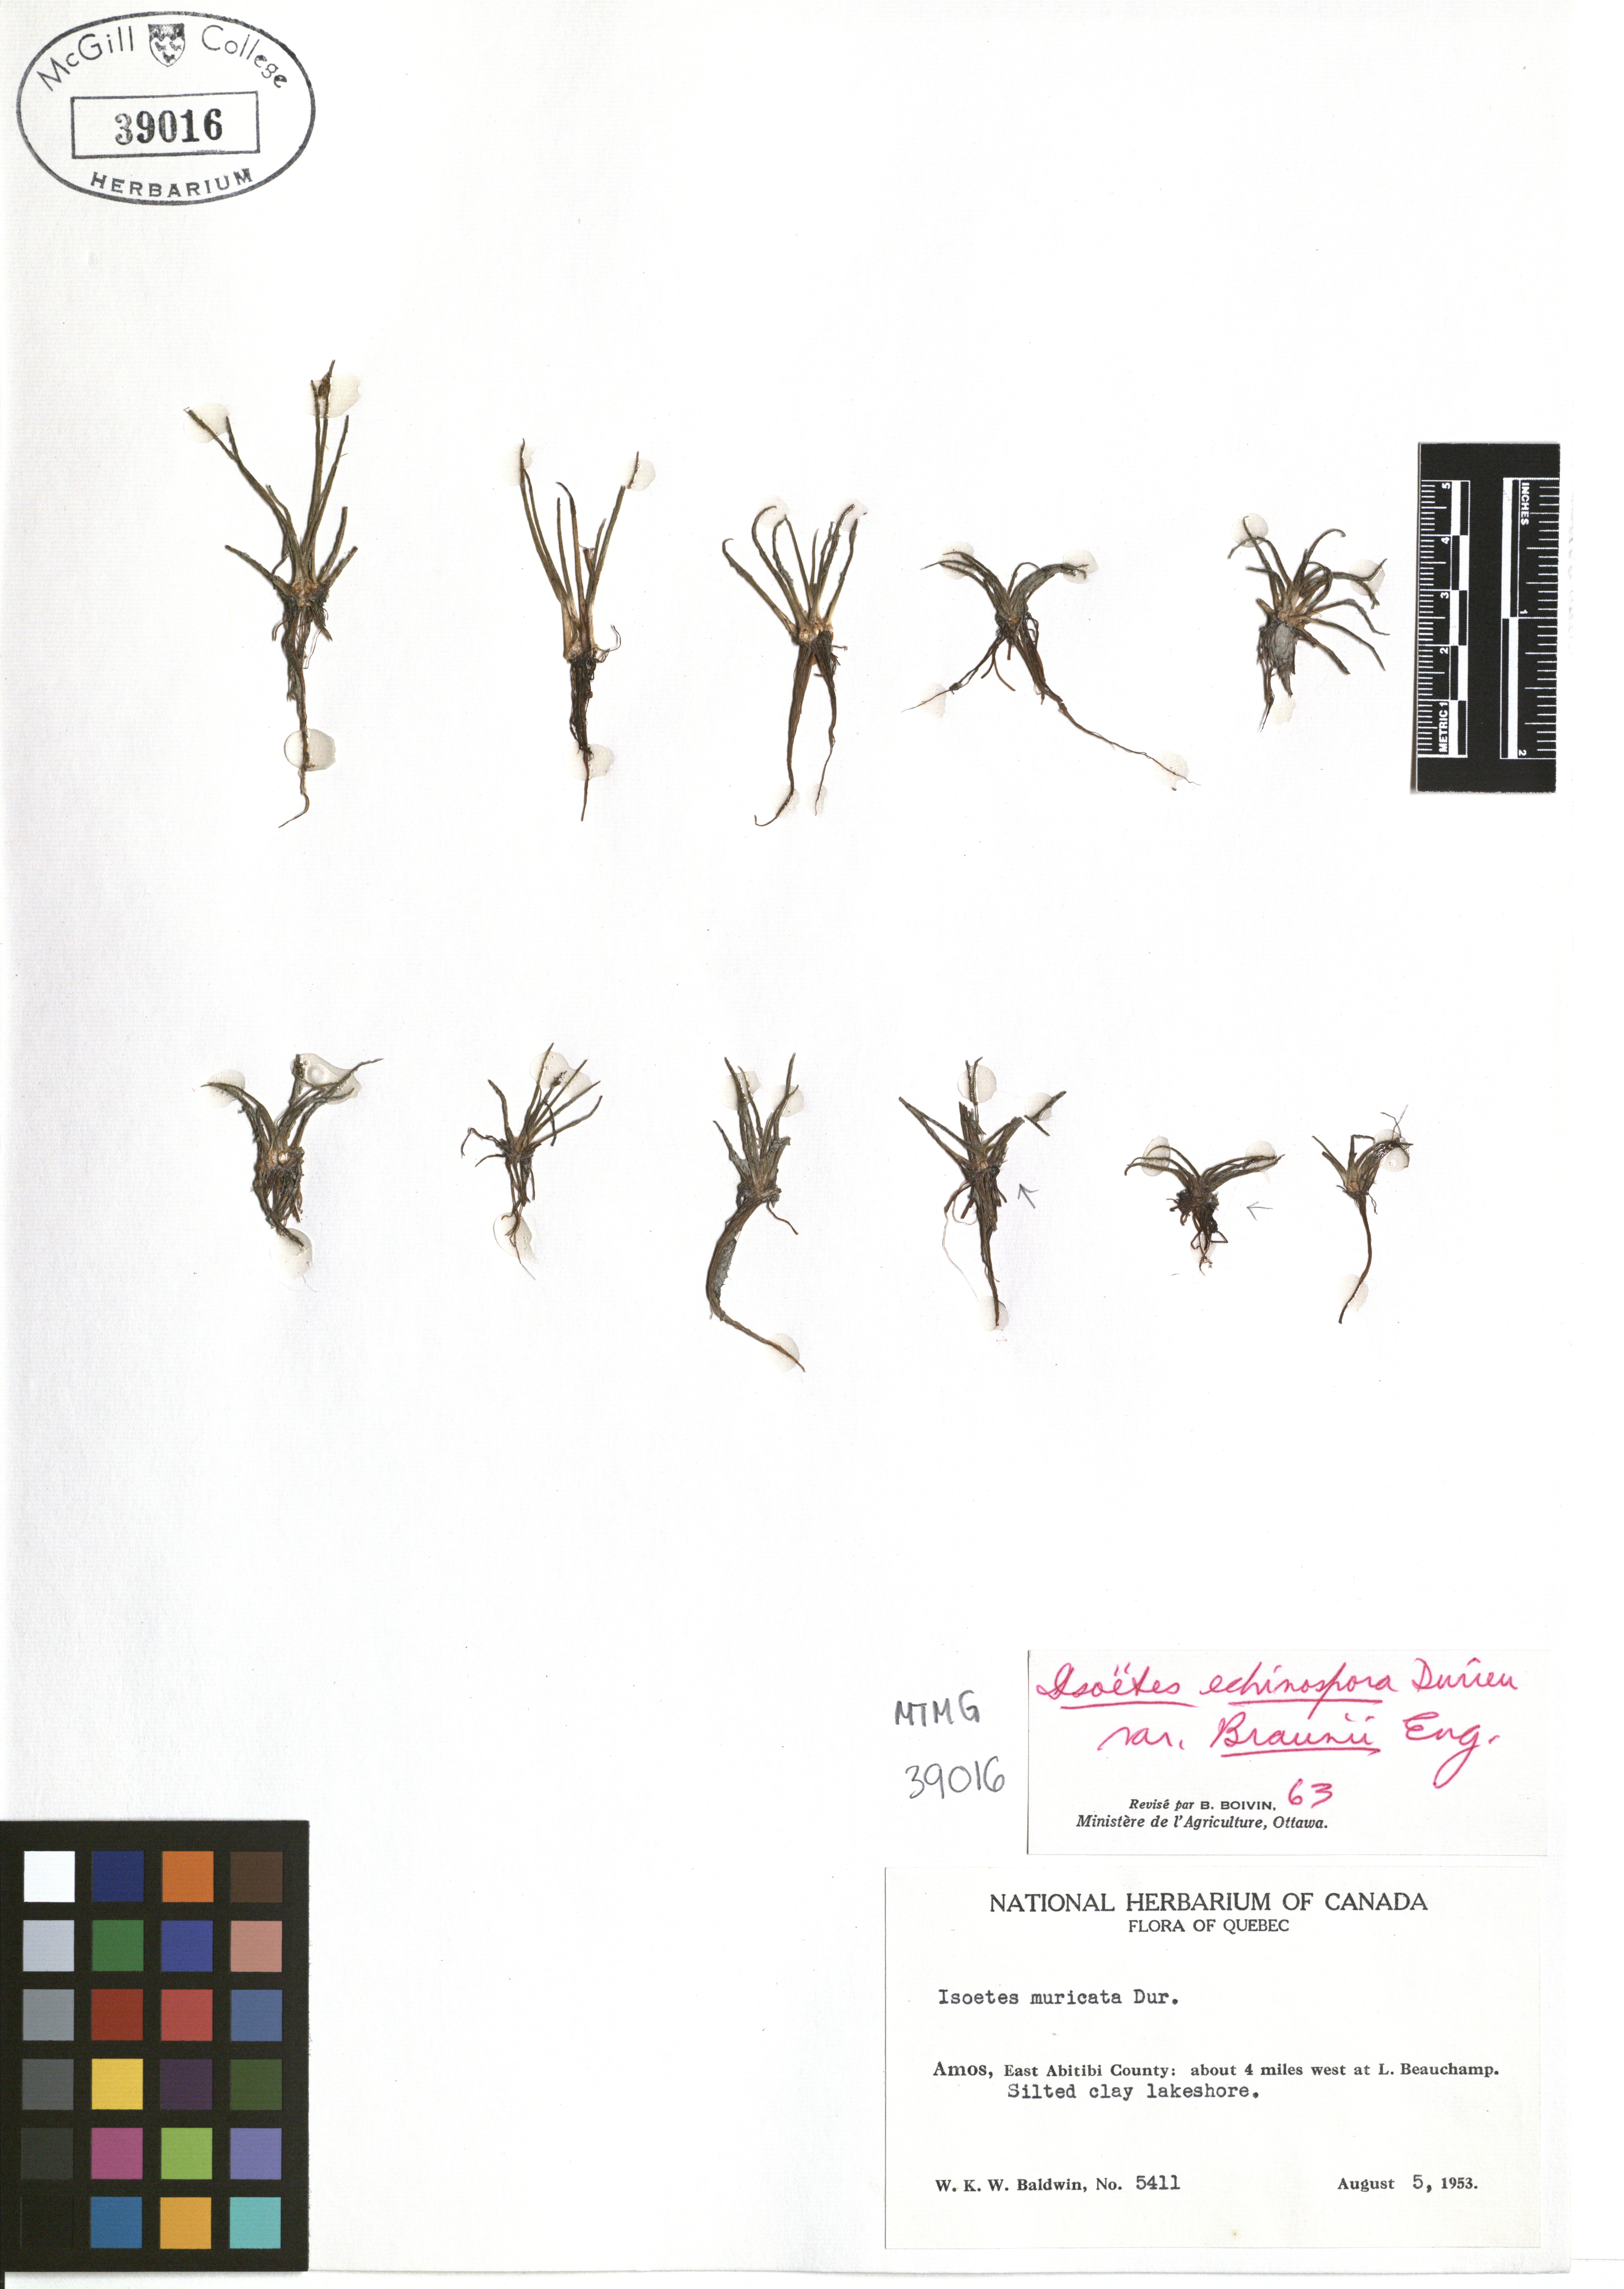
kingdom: Plantae
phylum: Tracheophyta
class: Lycopodiopsida
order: Isoetales
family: Isoetaceae
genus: Isoetes
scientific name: Isoetes echinospora
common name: Spring quillwort
